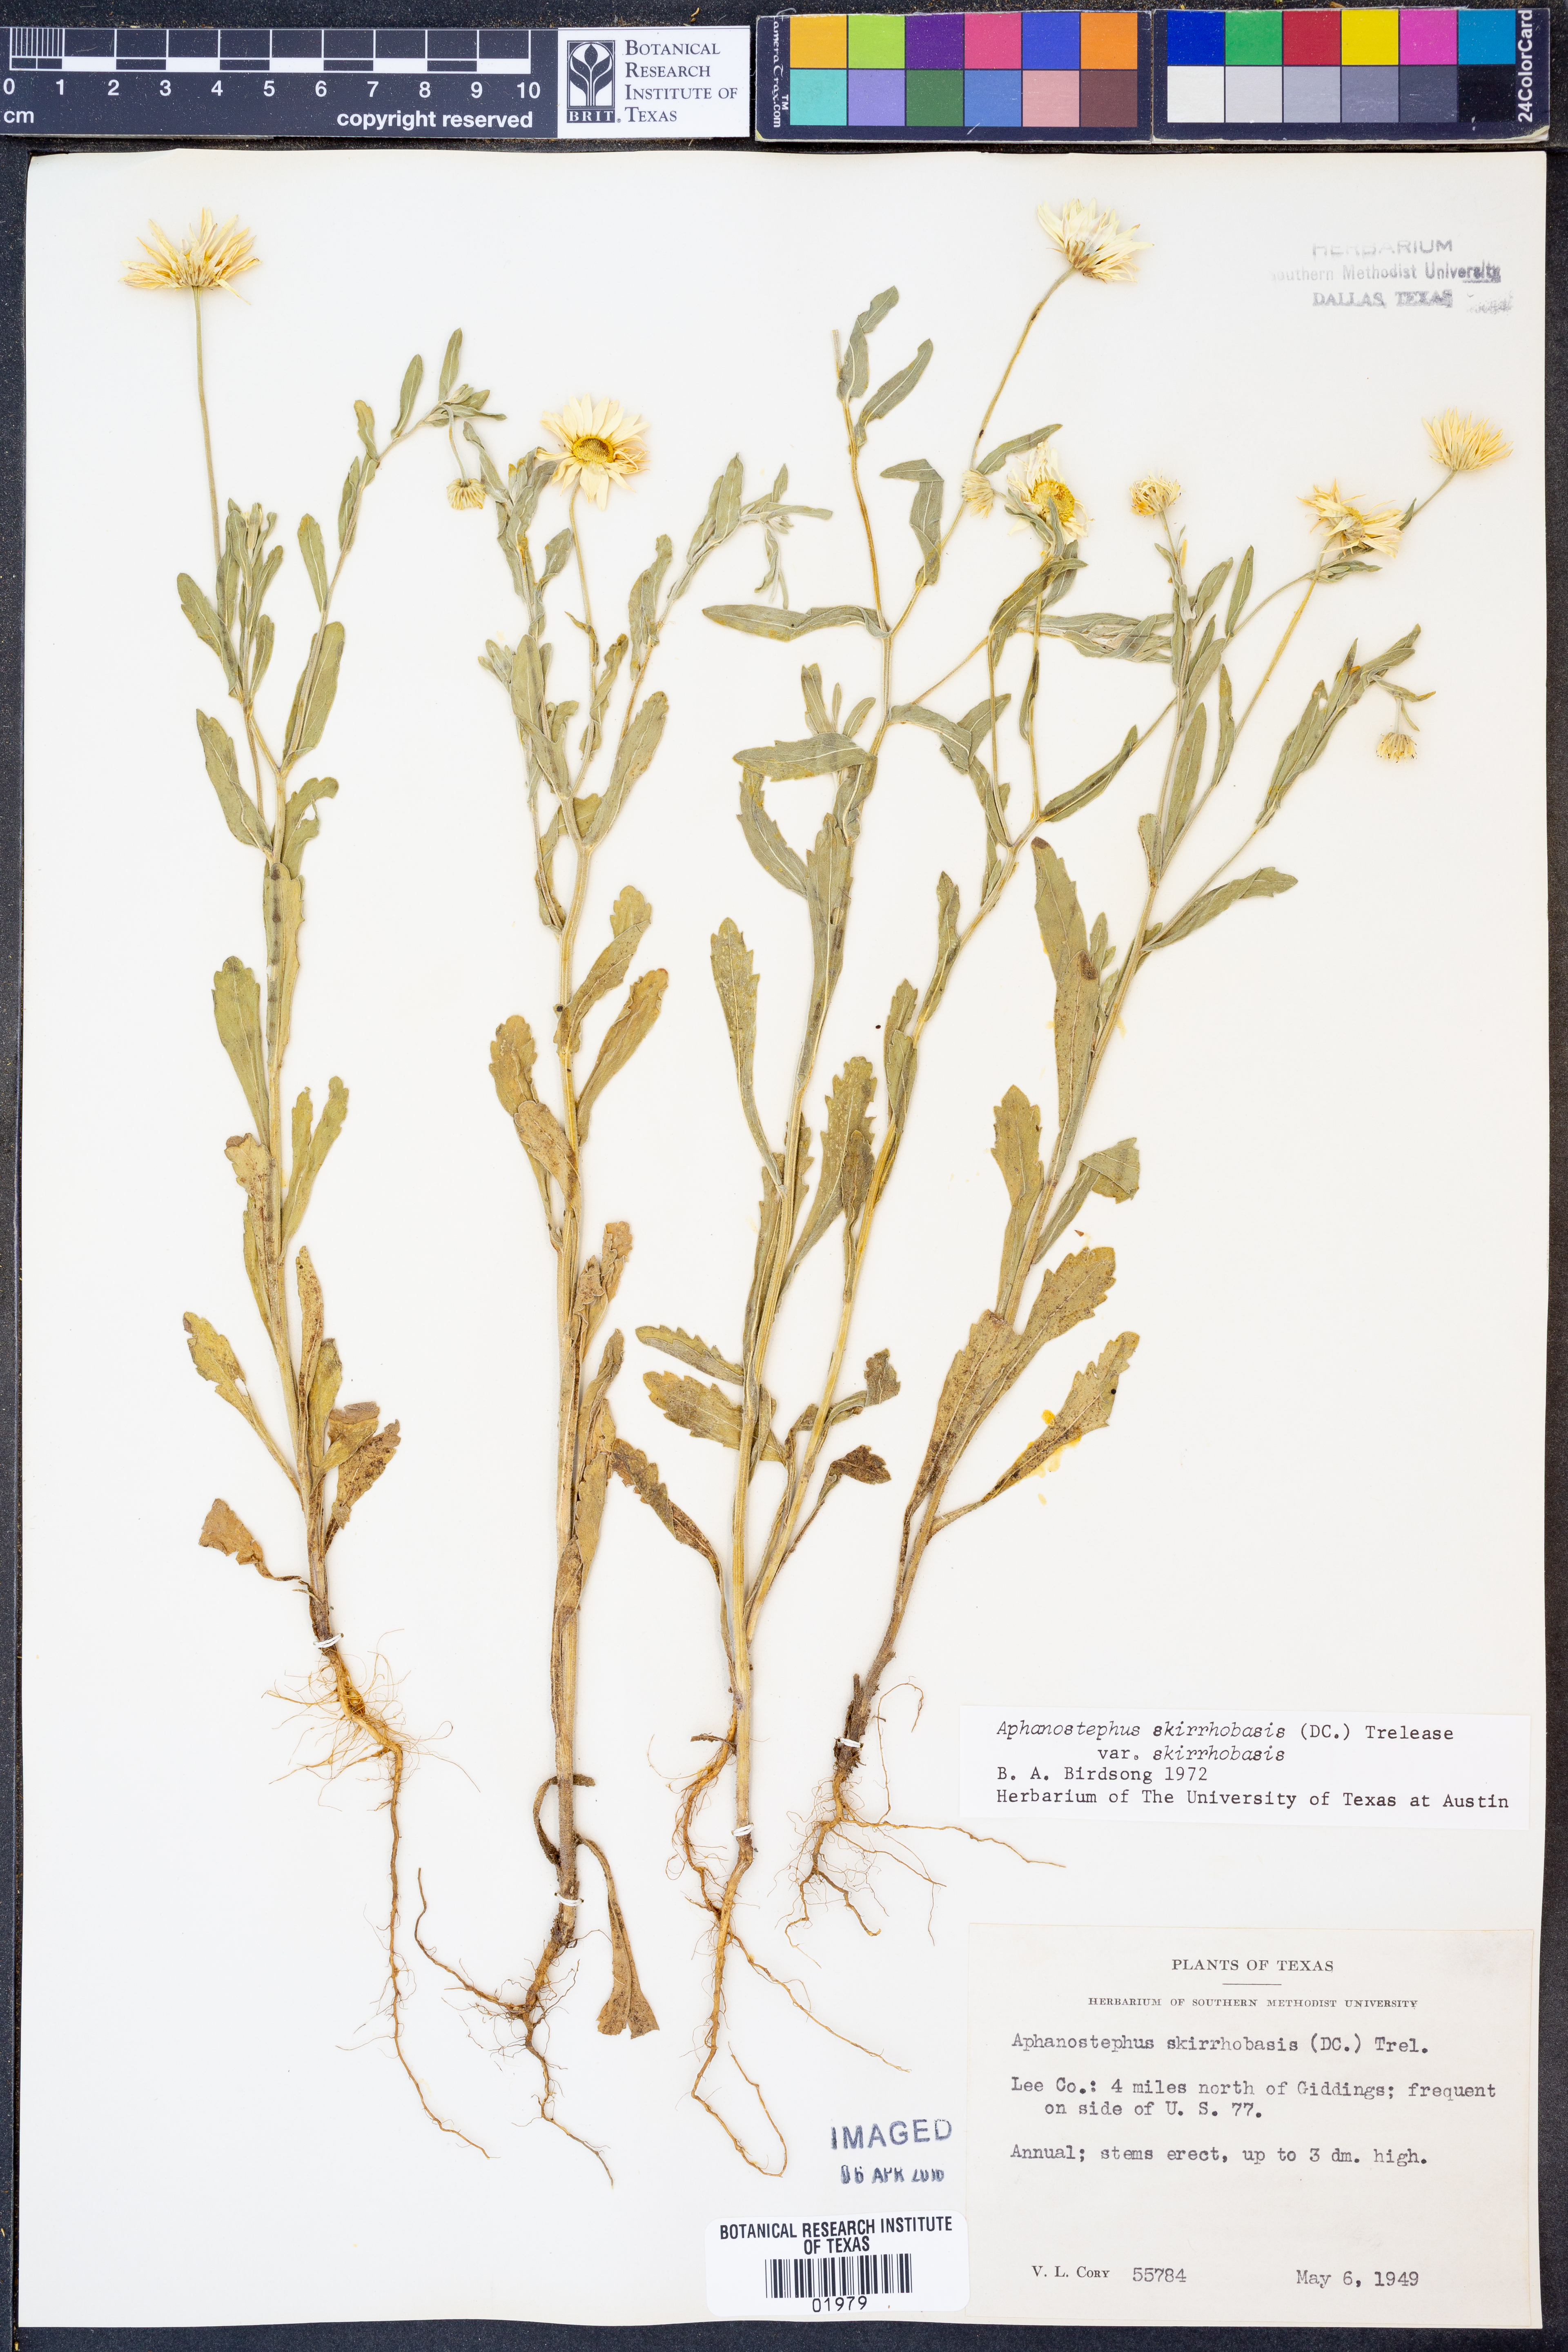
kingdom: Plantae
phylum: Tracheophyta
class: Magnoliopsida
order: Asterales
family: Asteraceae
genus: Aphanostephus
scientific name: Aphanostephus skirrhobasis
